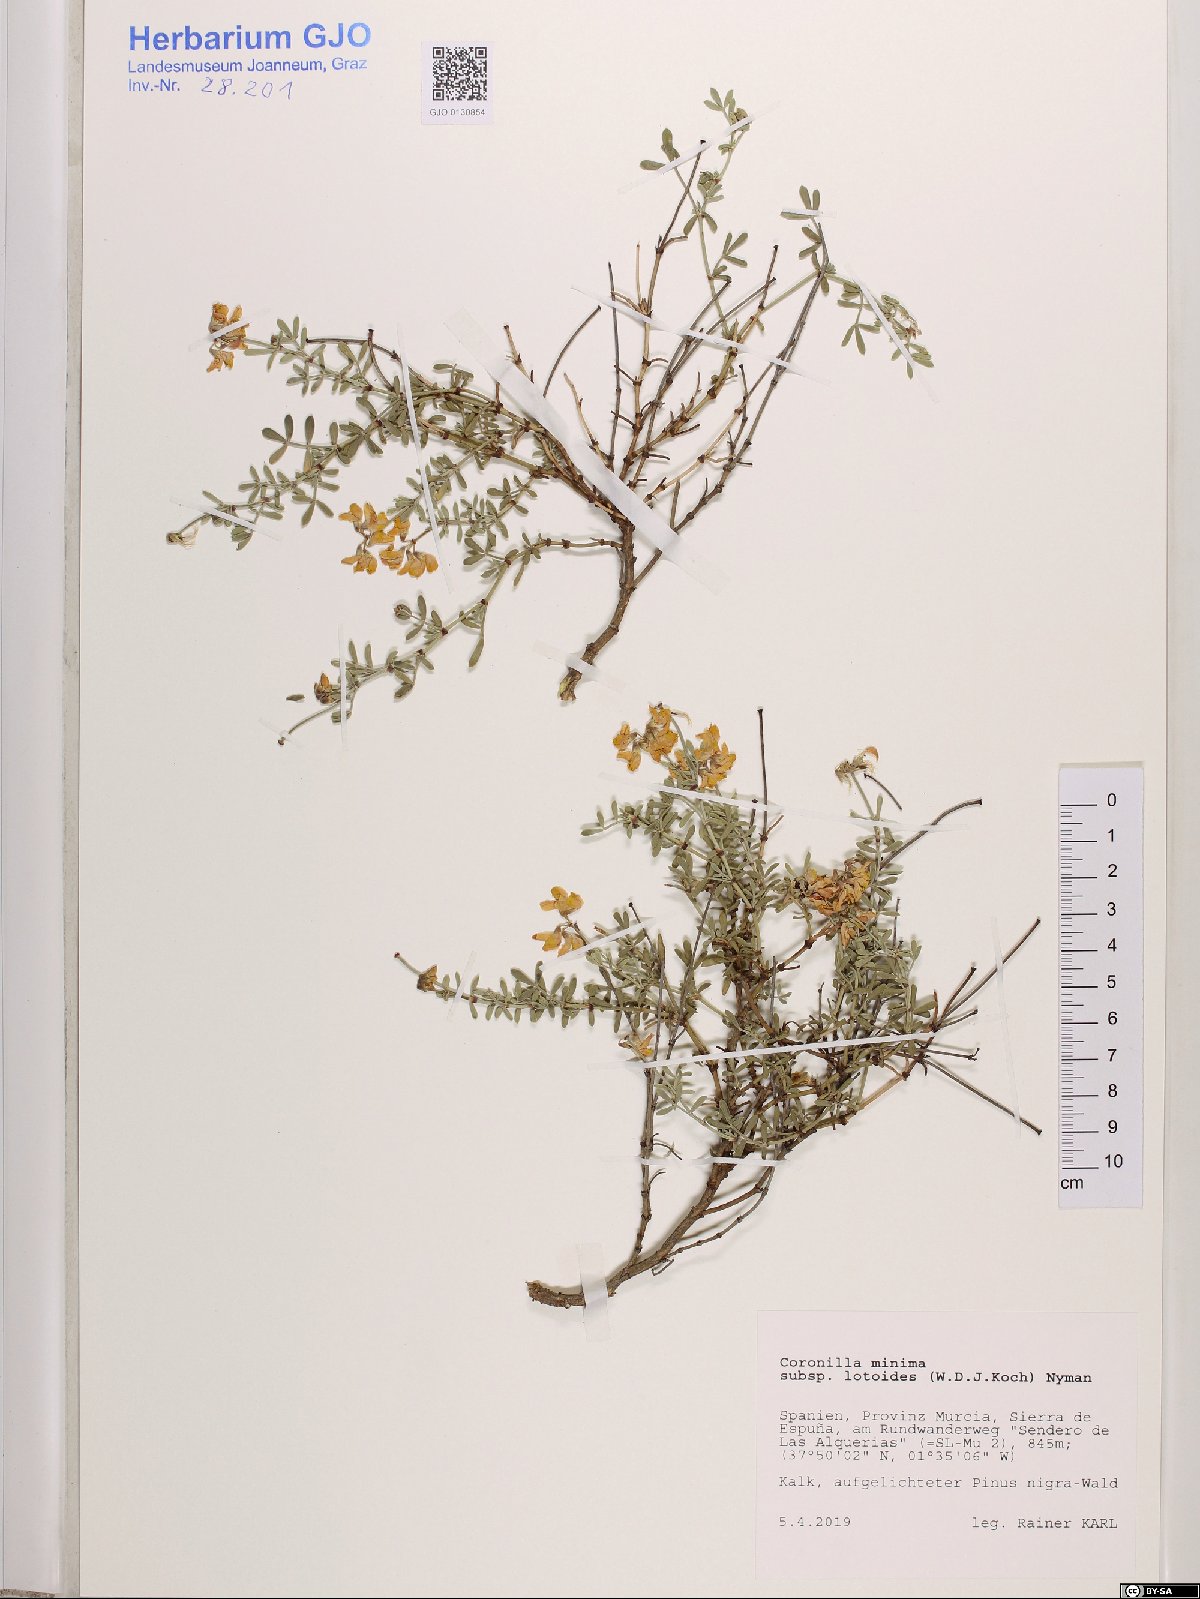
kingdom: Plantae
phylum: Tracheophyta
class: Magnoliopsida
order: Fabales
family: Fabaceae
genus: Coronilla
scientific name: Coronilla minima
